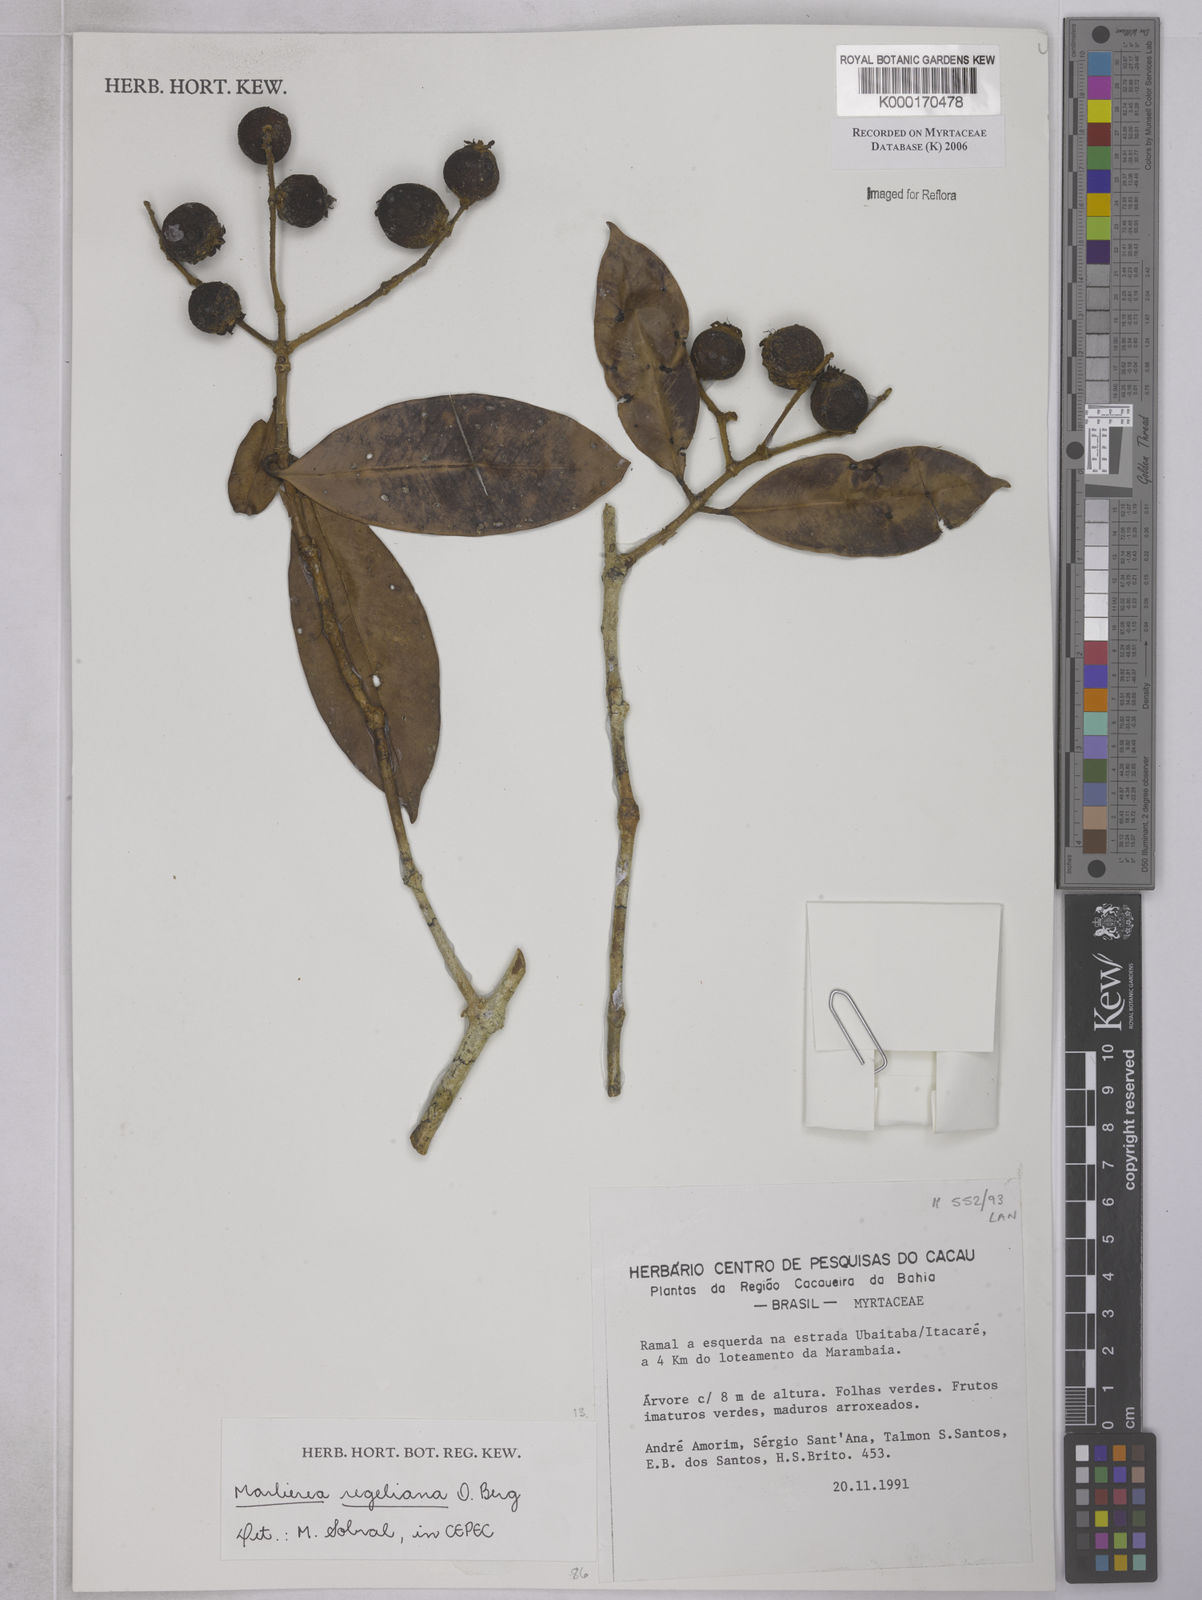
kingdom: Plantae
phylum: Tracheophyta
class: Magnoliopsida
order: Myrtales
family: Myrtaceae
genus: Myrcia
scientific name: Myrcia neoregeliana
